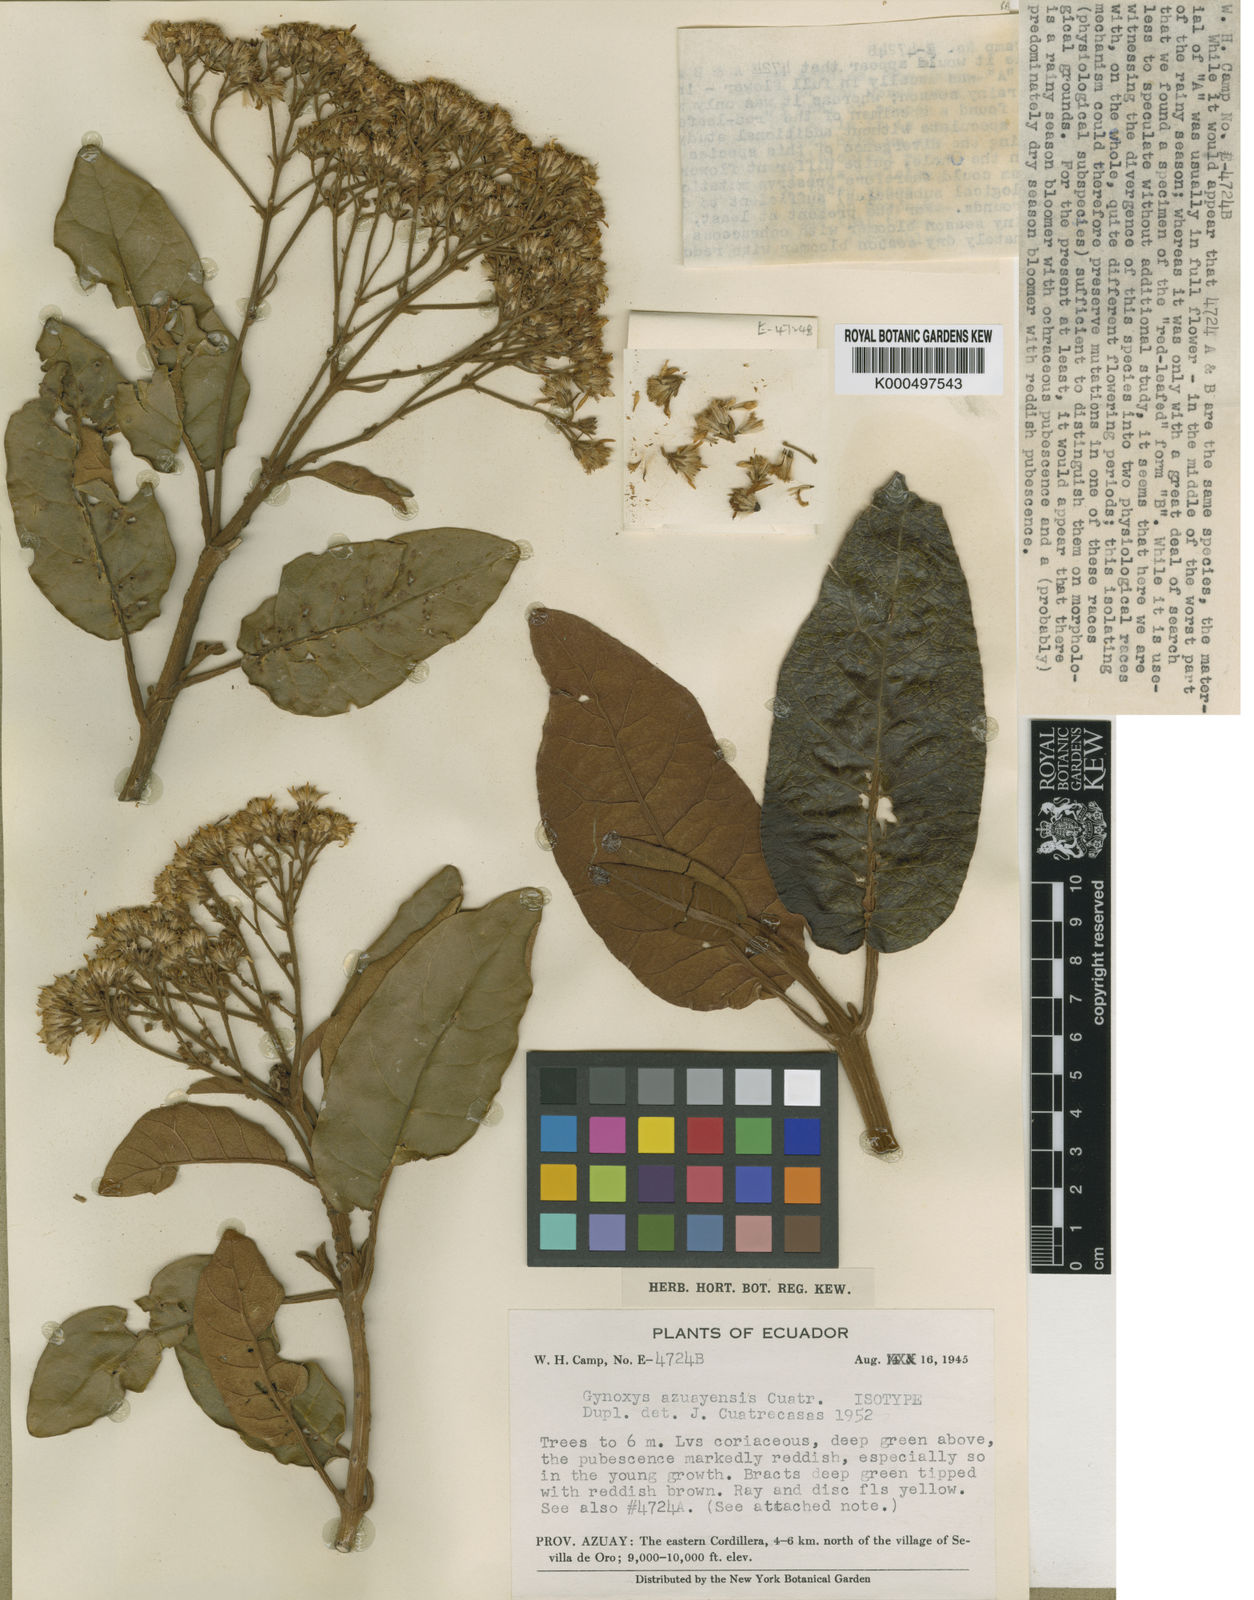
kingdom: Plantae
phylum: Tracheophyta
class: Magnoliopsida
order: Asterales
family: Asteraceae
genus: Gynoxys
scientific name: Gynoxys azuayensis
